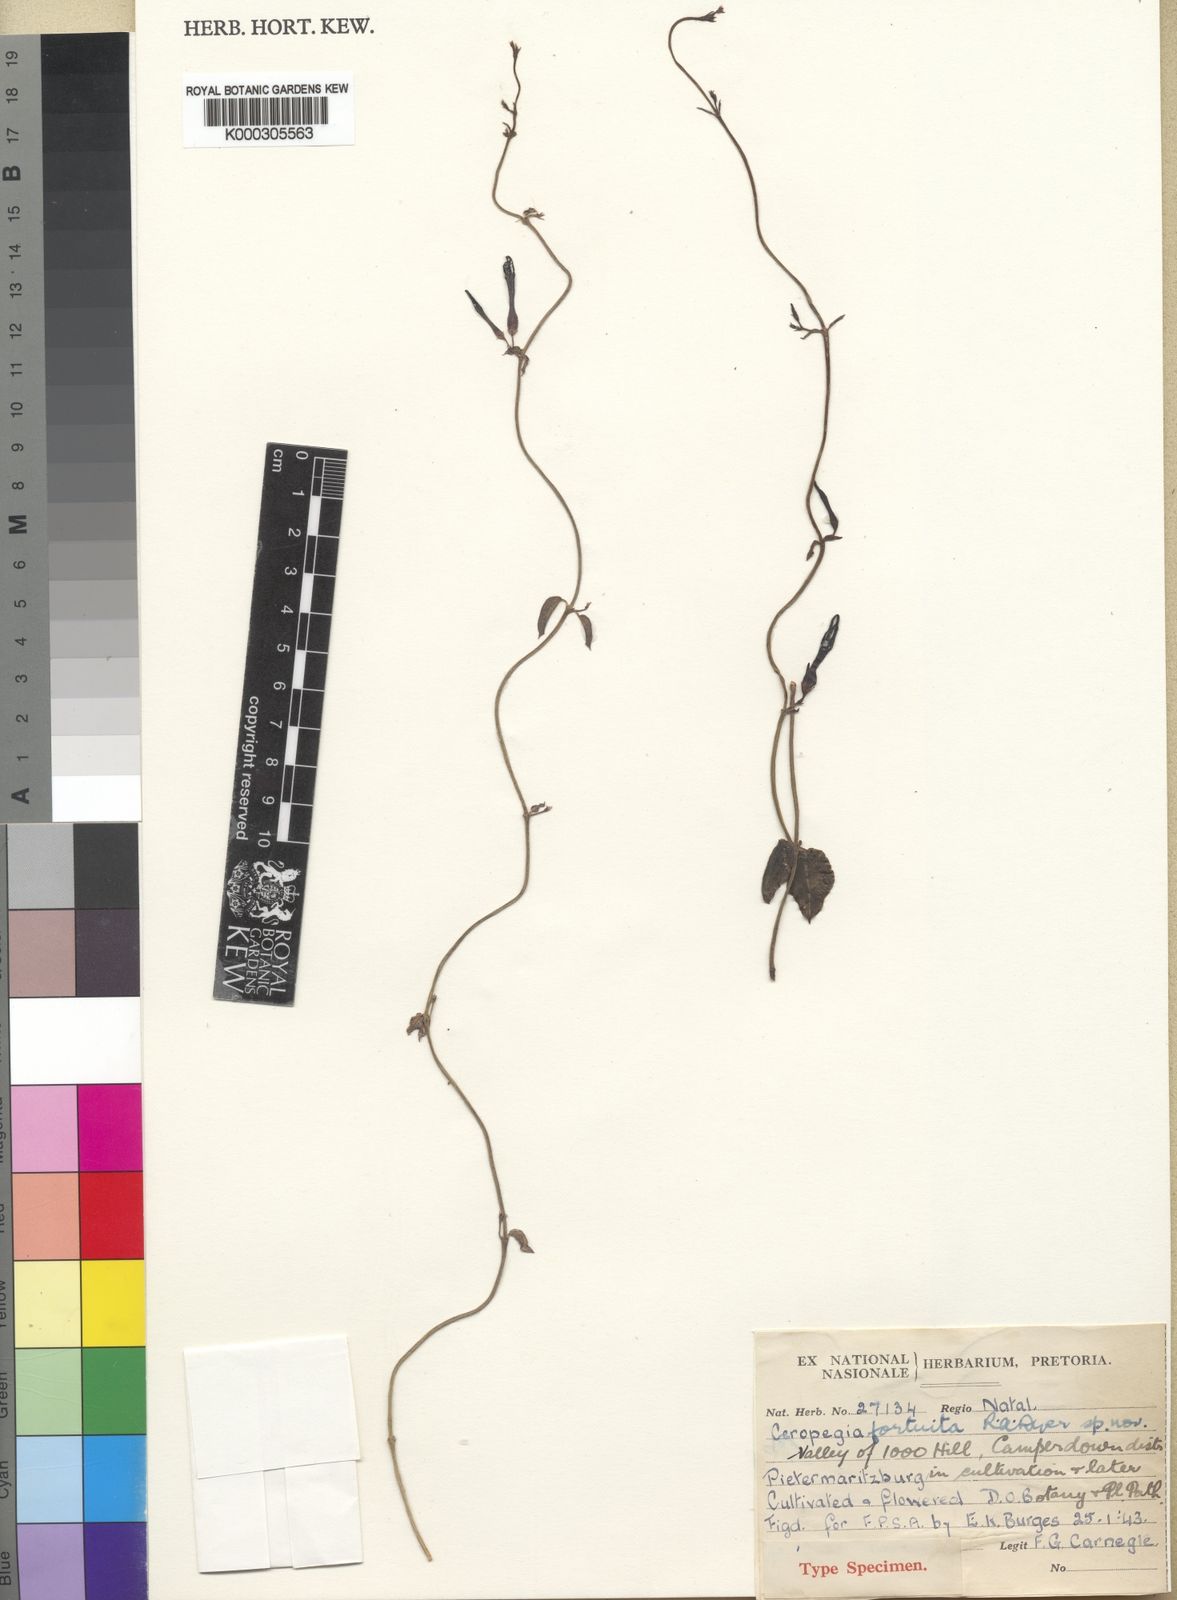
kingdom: Plantae
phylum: Tracheophyta
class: Magnoliopsida
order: Gentianales
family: Apocynaceae
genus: Ceropegia
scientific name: Ceropegia africana
